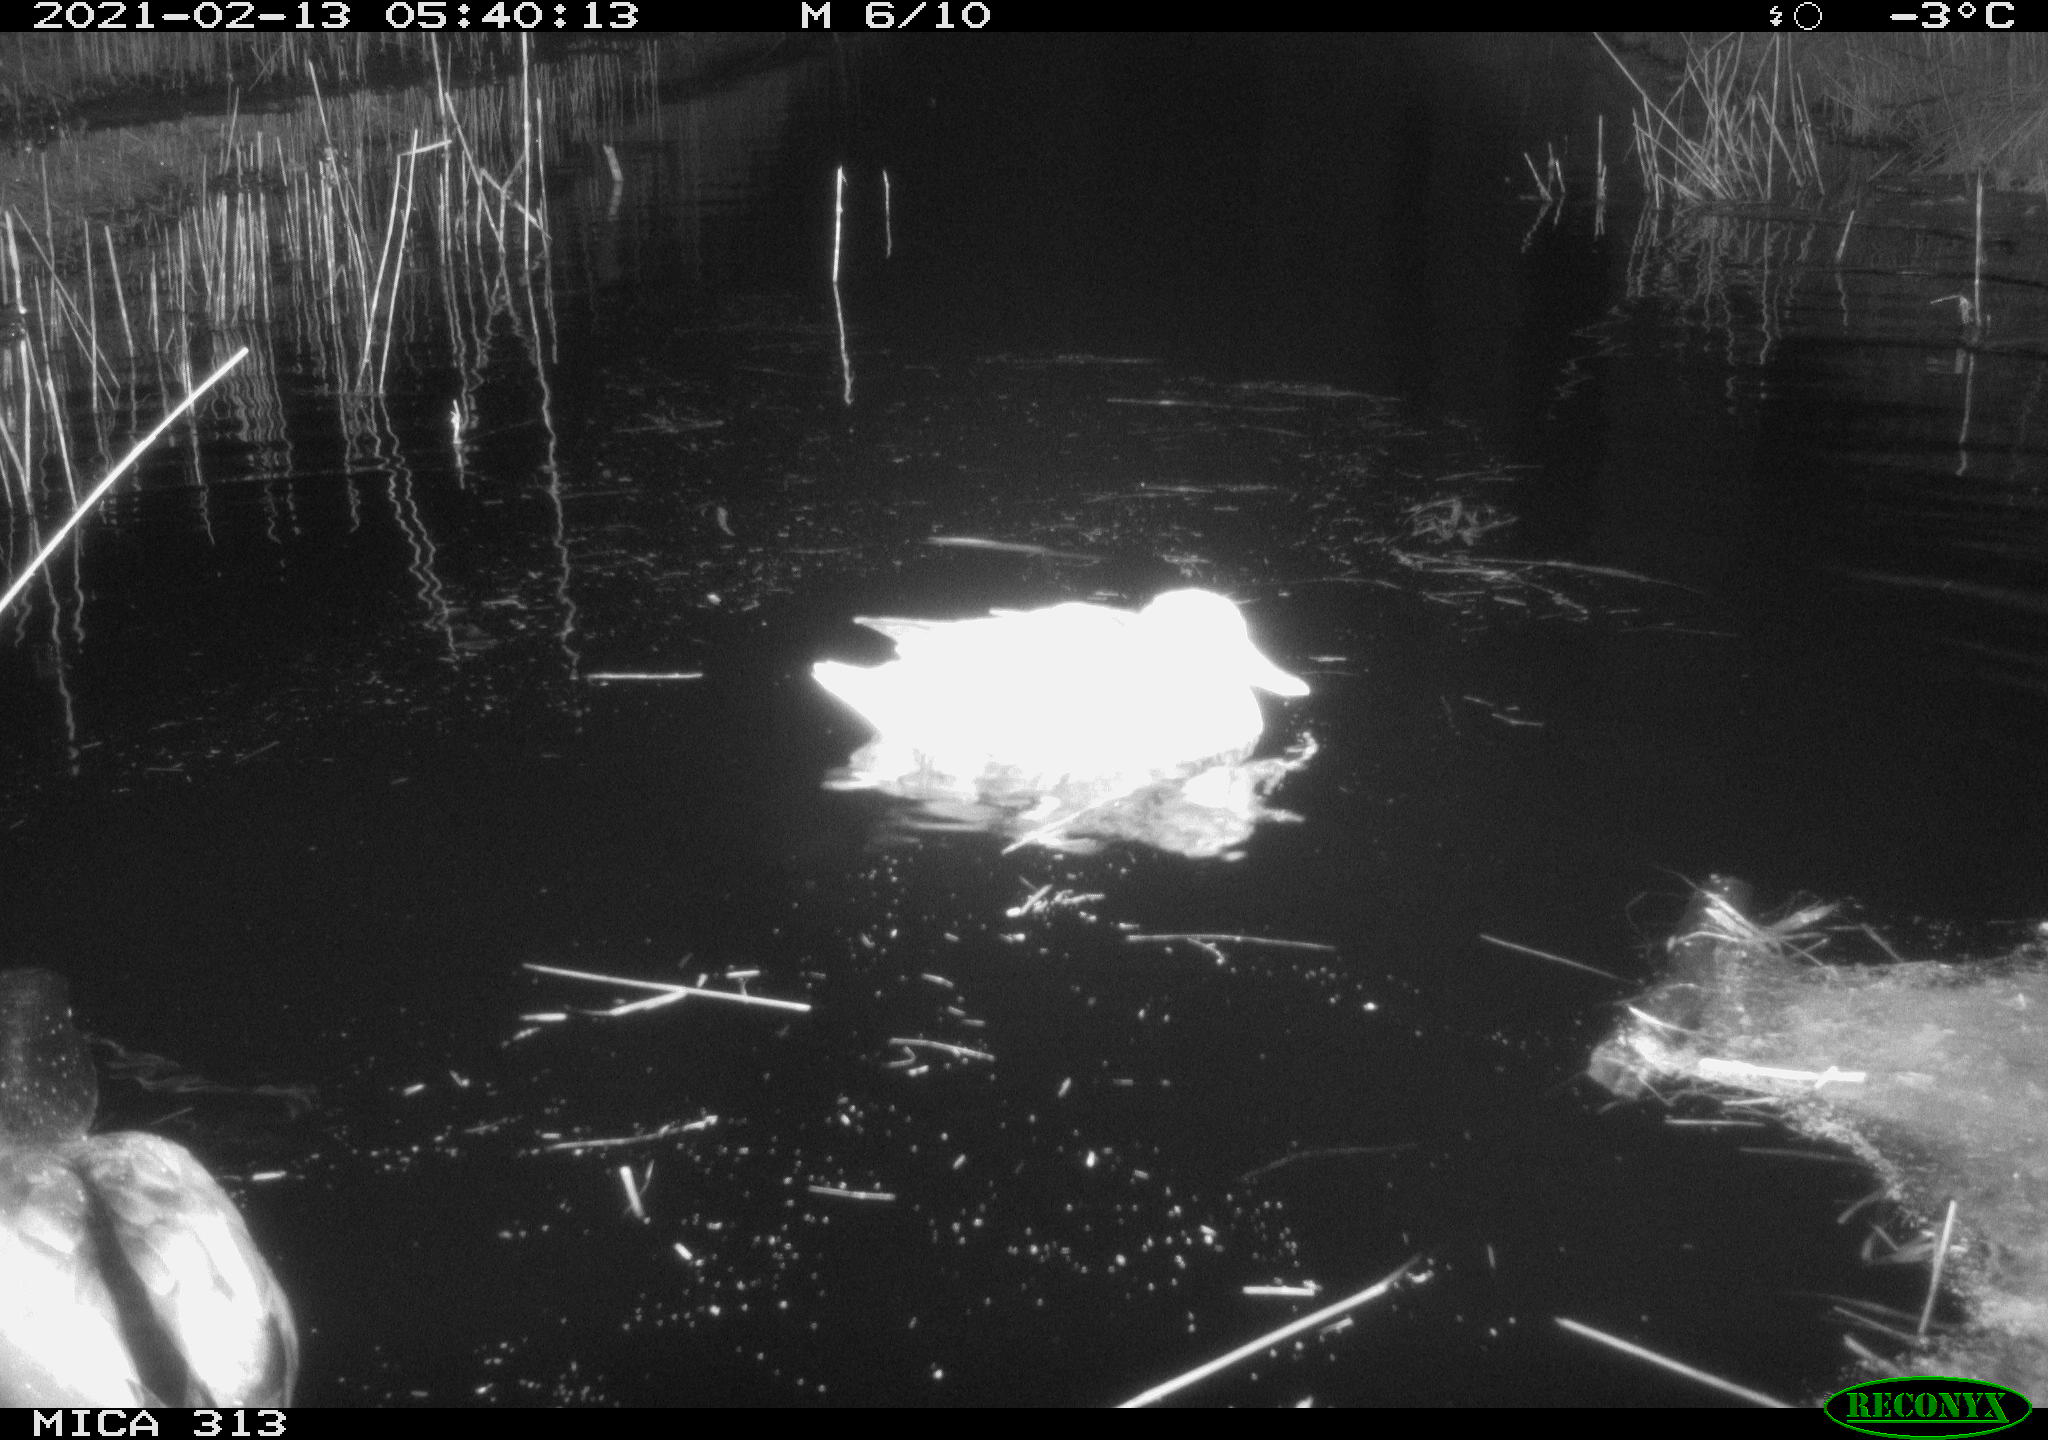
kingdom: Animalia
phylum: Chordata
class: Aves
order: Anseriformes
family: Anatidae
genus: Anas
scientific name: Anas
